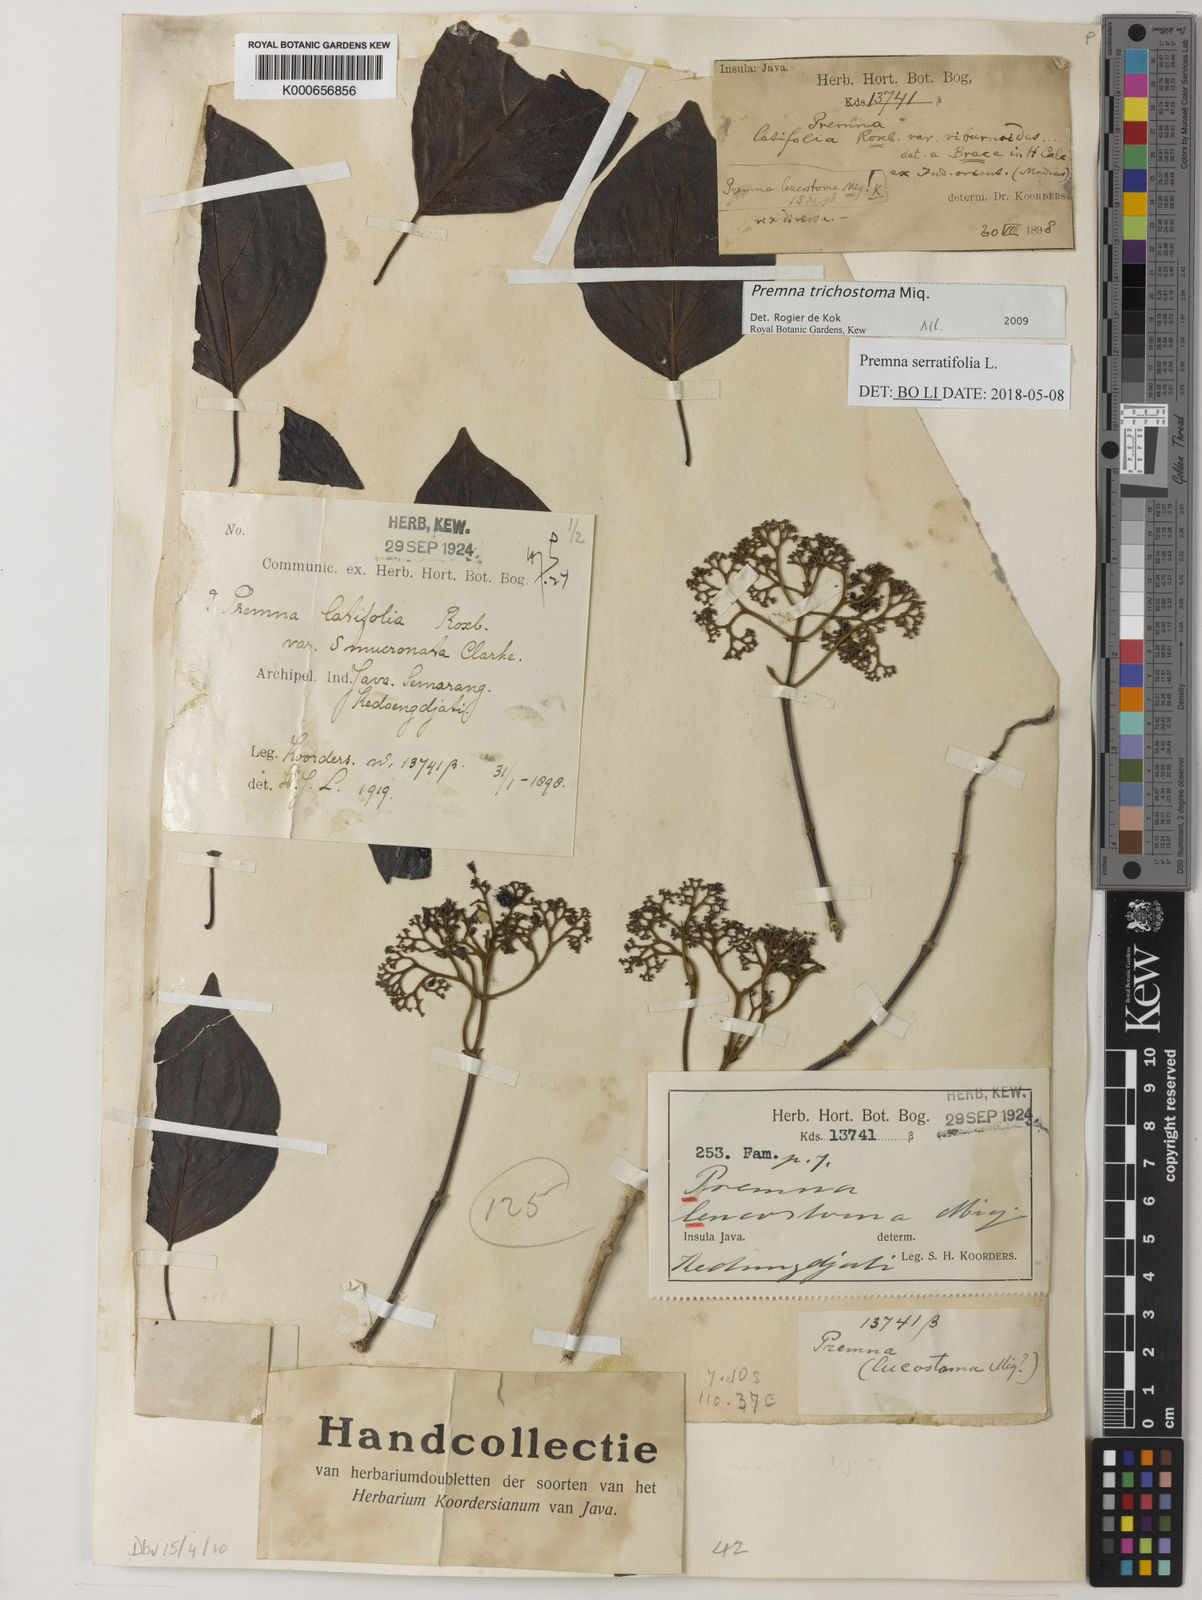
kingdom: Plantae
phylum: Tracheophyta
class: Magnoliopsida
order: Lamiales
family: Lamiaceae
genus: Premna
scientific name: Premna trichostoma
